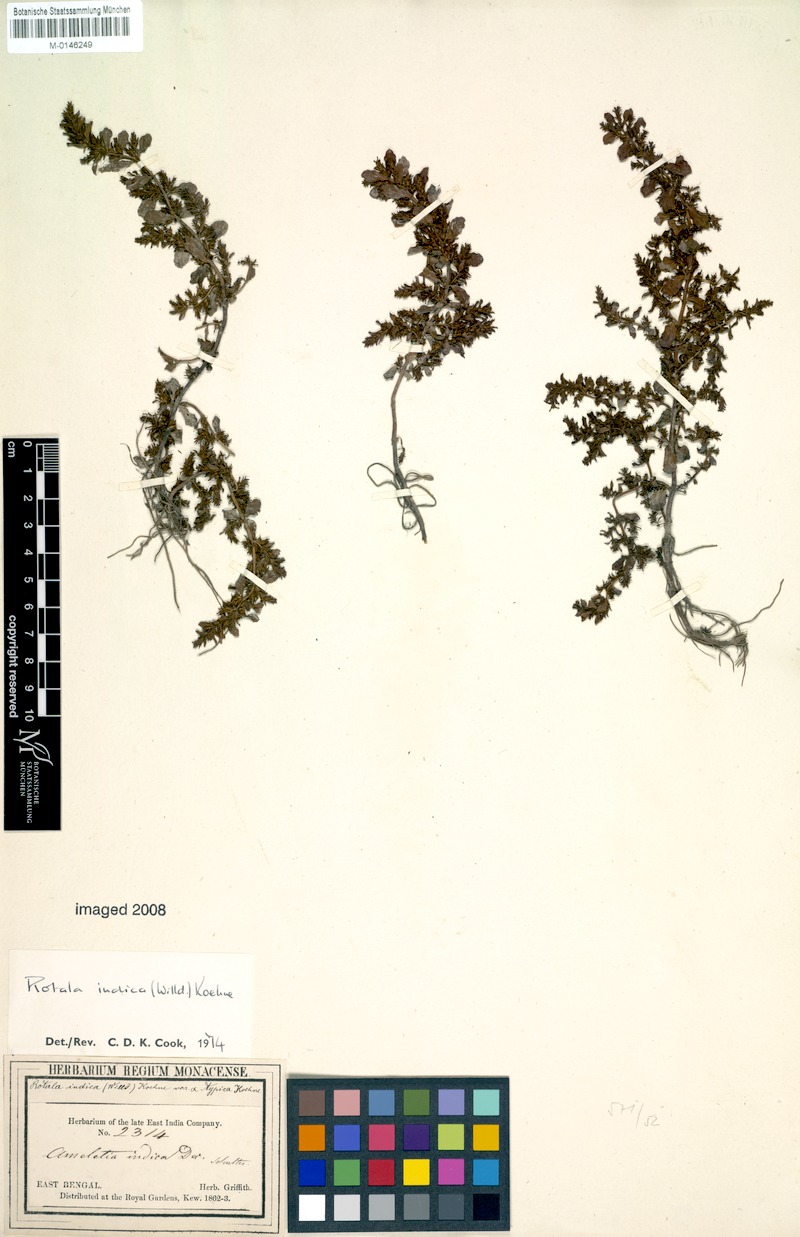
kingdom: Plantae
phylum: Tracheophyta
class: Magnoliopsida
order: Myrtales
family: Lythraceae
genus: Rotala
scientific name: Rotala indica
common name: Indian toothcup
